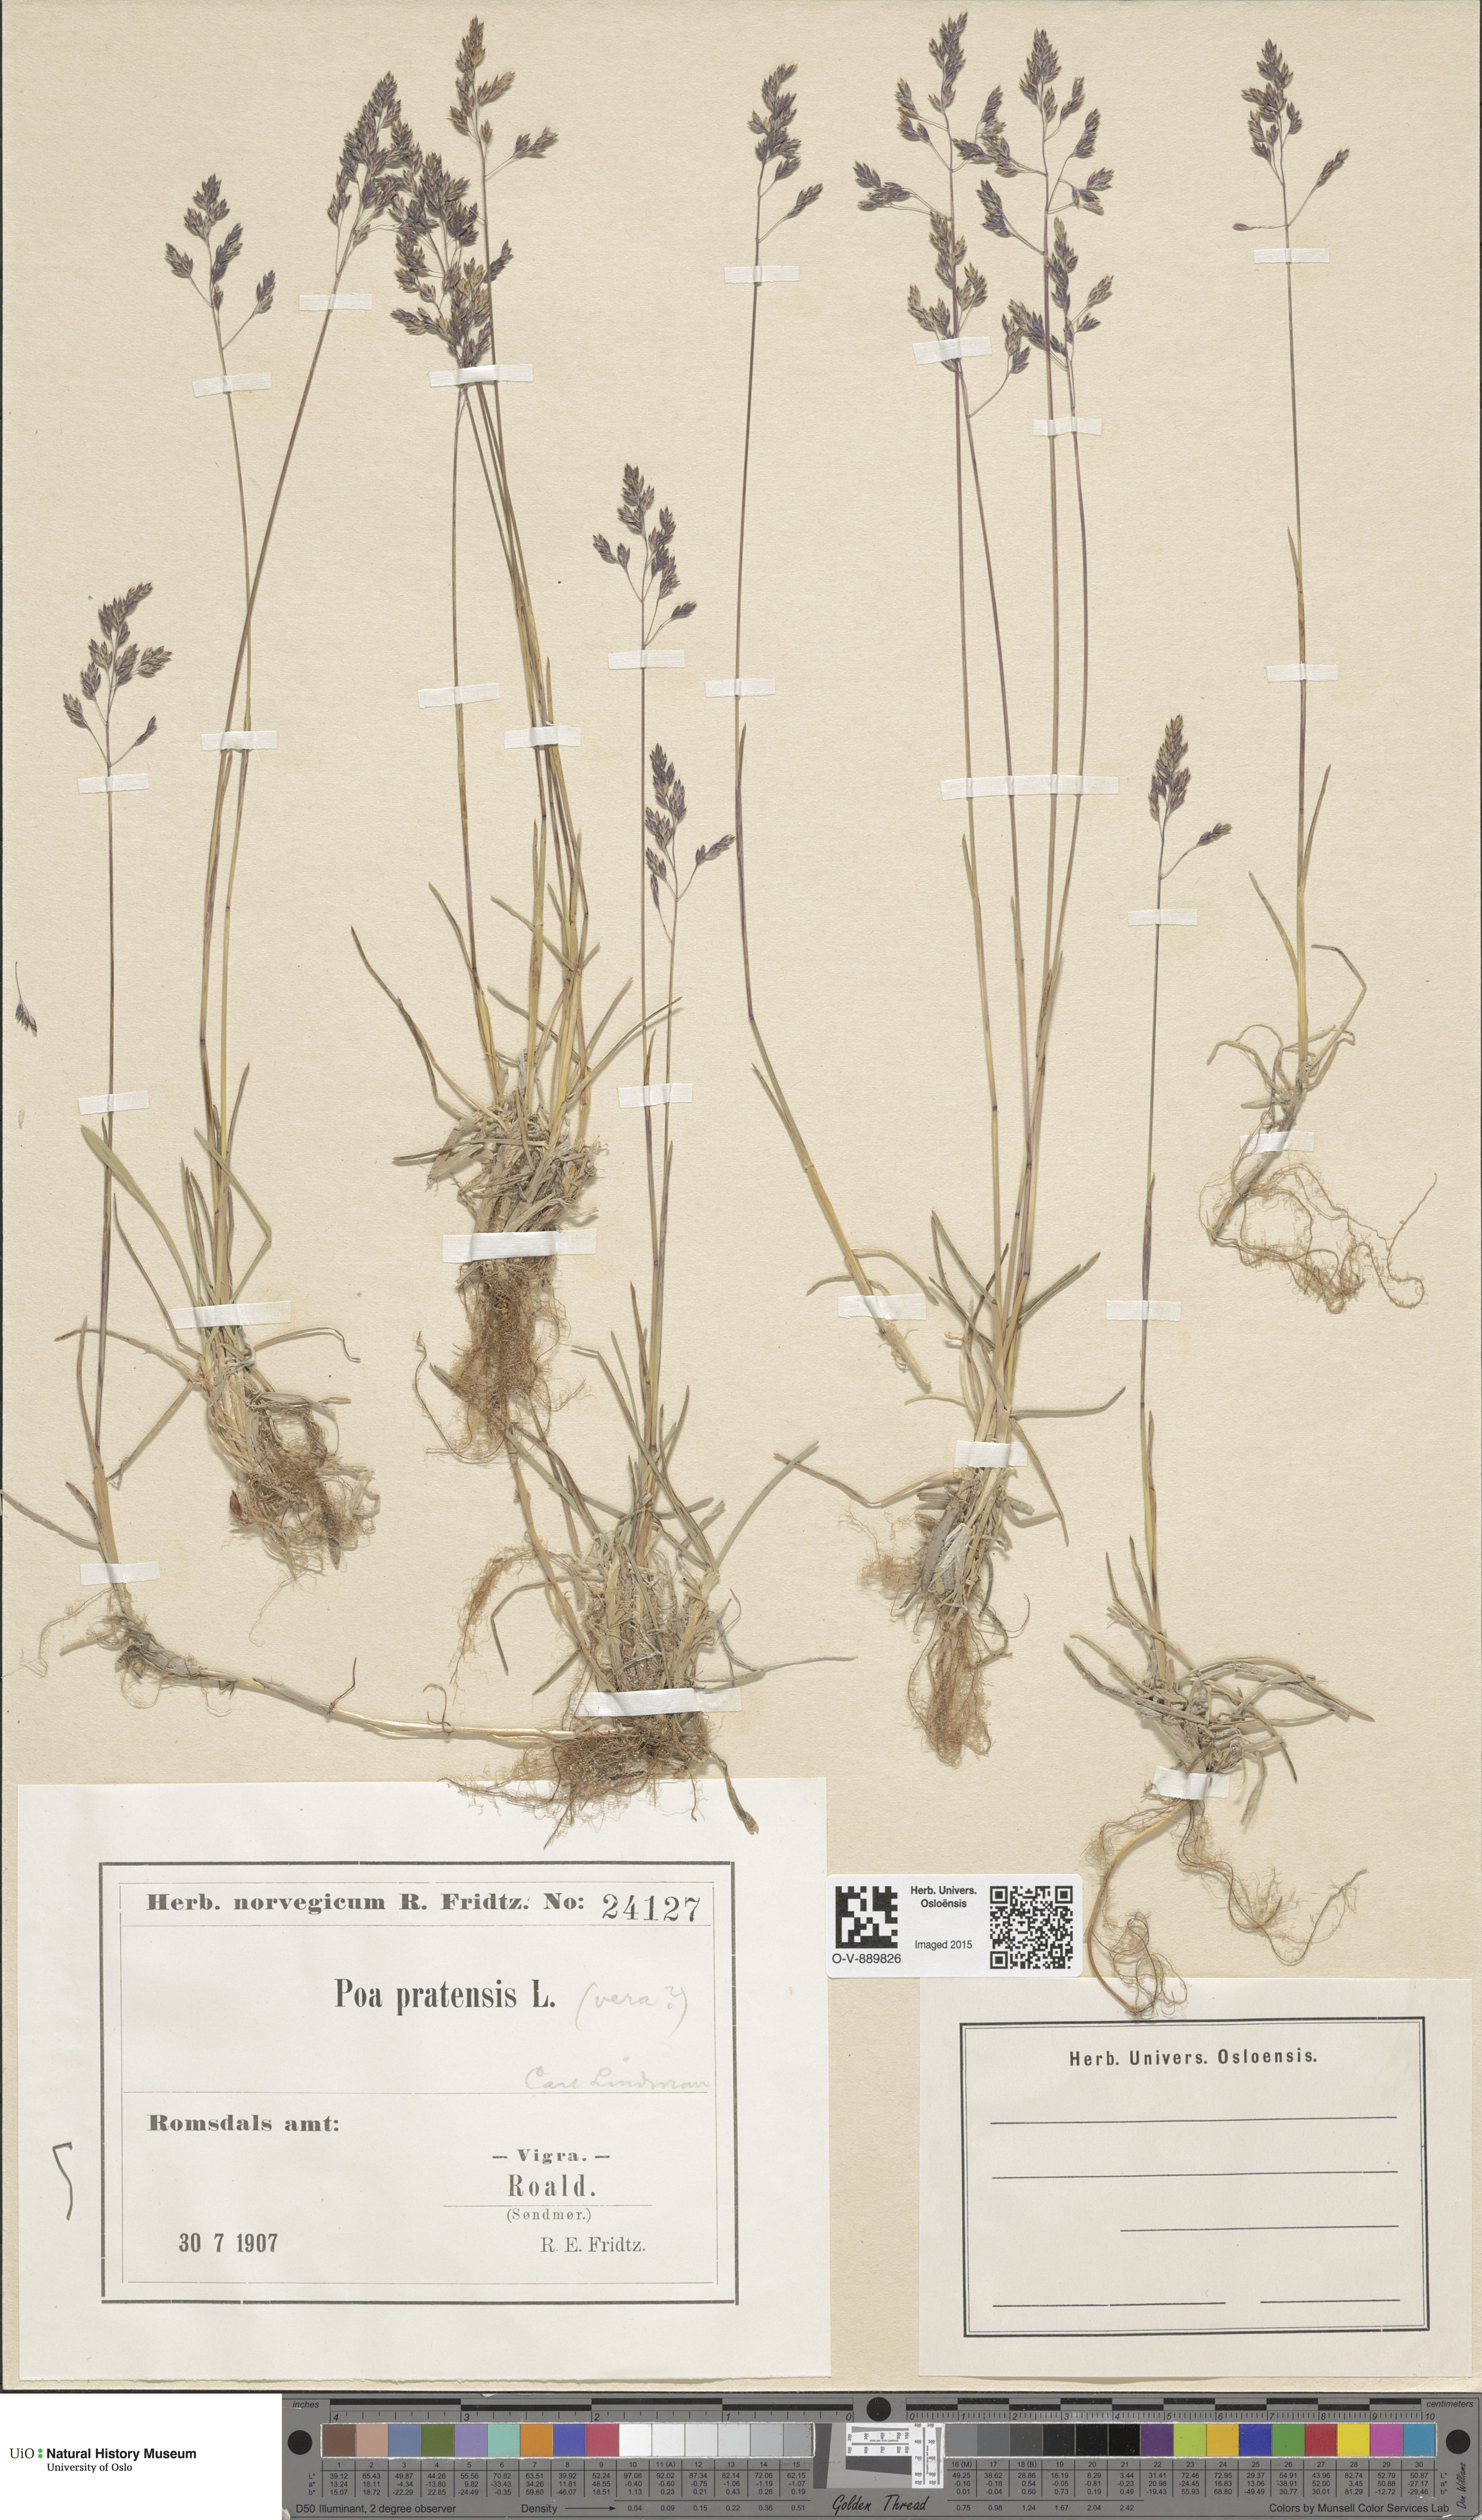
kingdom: Plantae
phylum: Tracheophyta
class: Liliopsida
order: Poales
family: Poaceae
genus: Poa
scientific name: Poa pratensis
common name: Kentucky bluegrass
